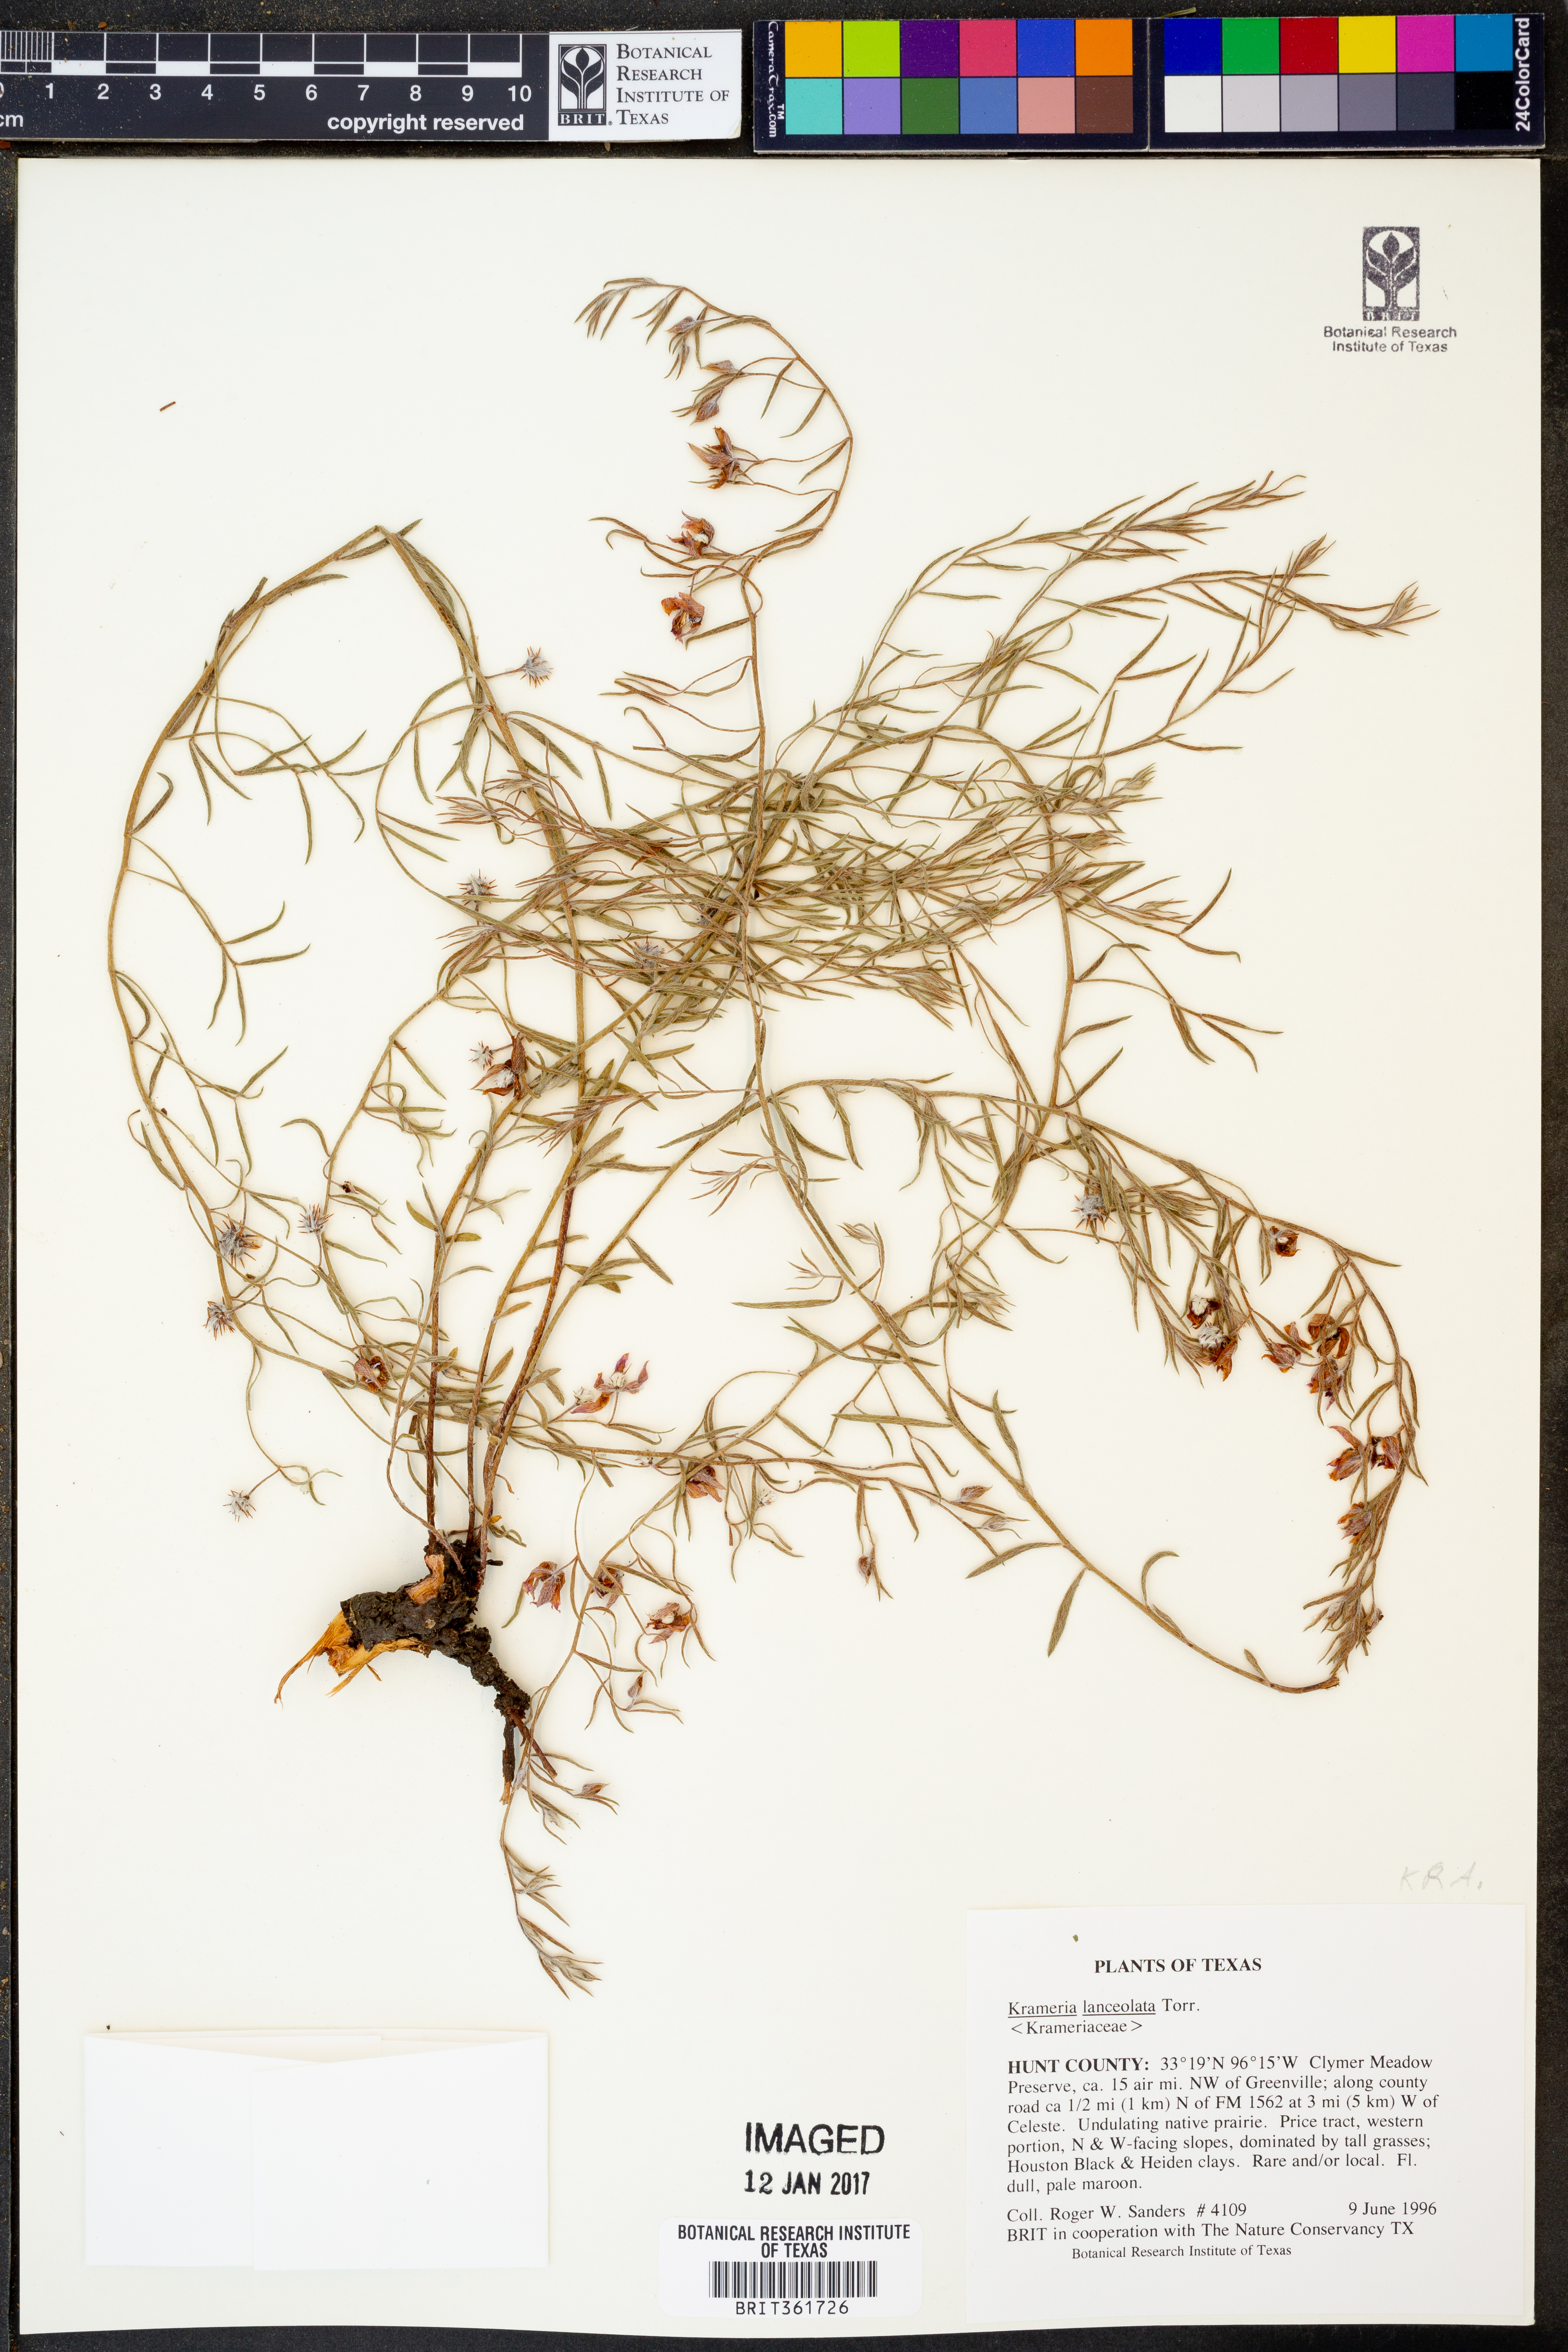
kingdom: Plantae
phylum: Tracheophyta
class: Magnoliopsida
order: Zygophyllales
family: Krameriaceae
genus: Krameria
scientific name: Krameria lanceolata
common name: Ratany
